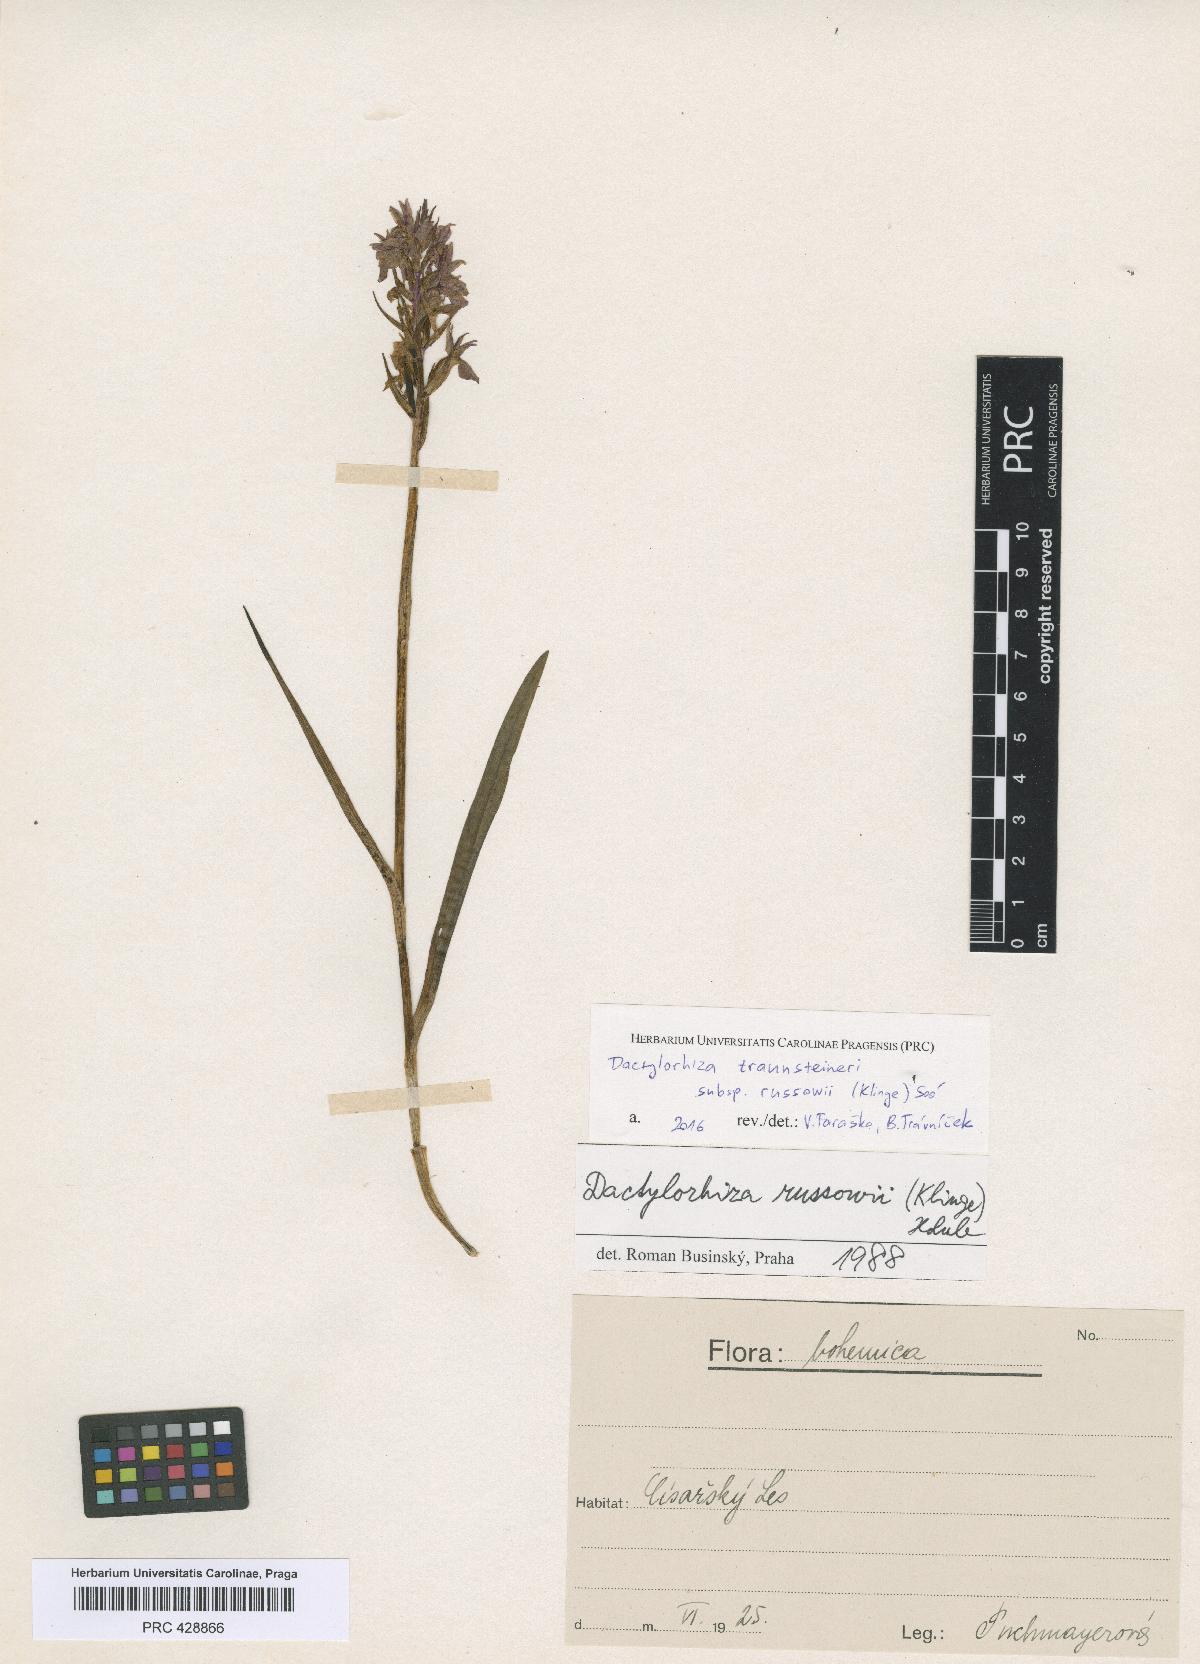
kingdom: Plantae
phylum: Tracheophyta
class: Liliopsida
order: Asparagales
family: Orchidaceae
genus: Dactylorhiza
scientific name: Dactylorhiza russowii
